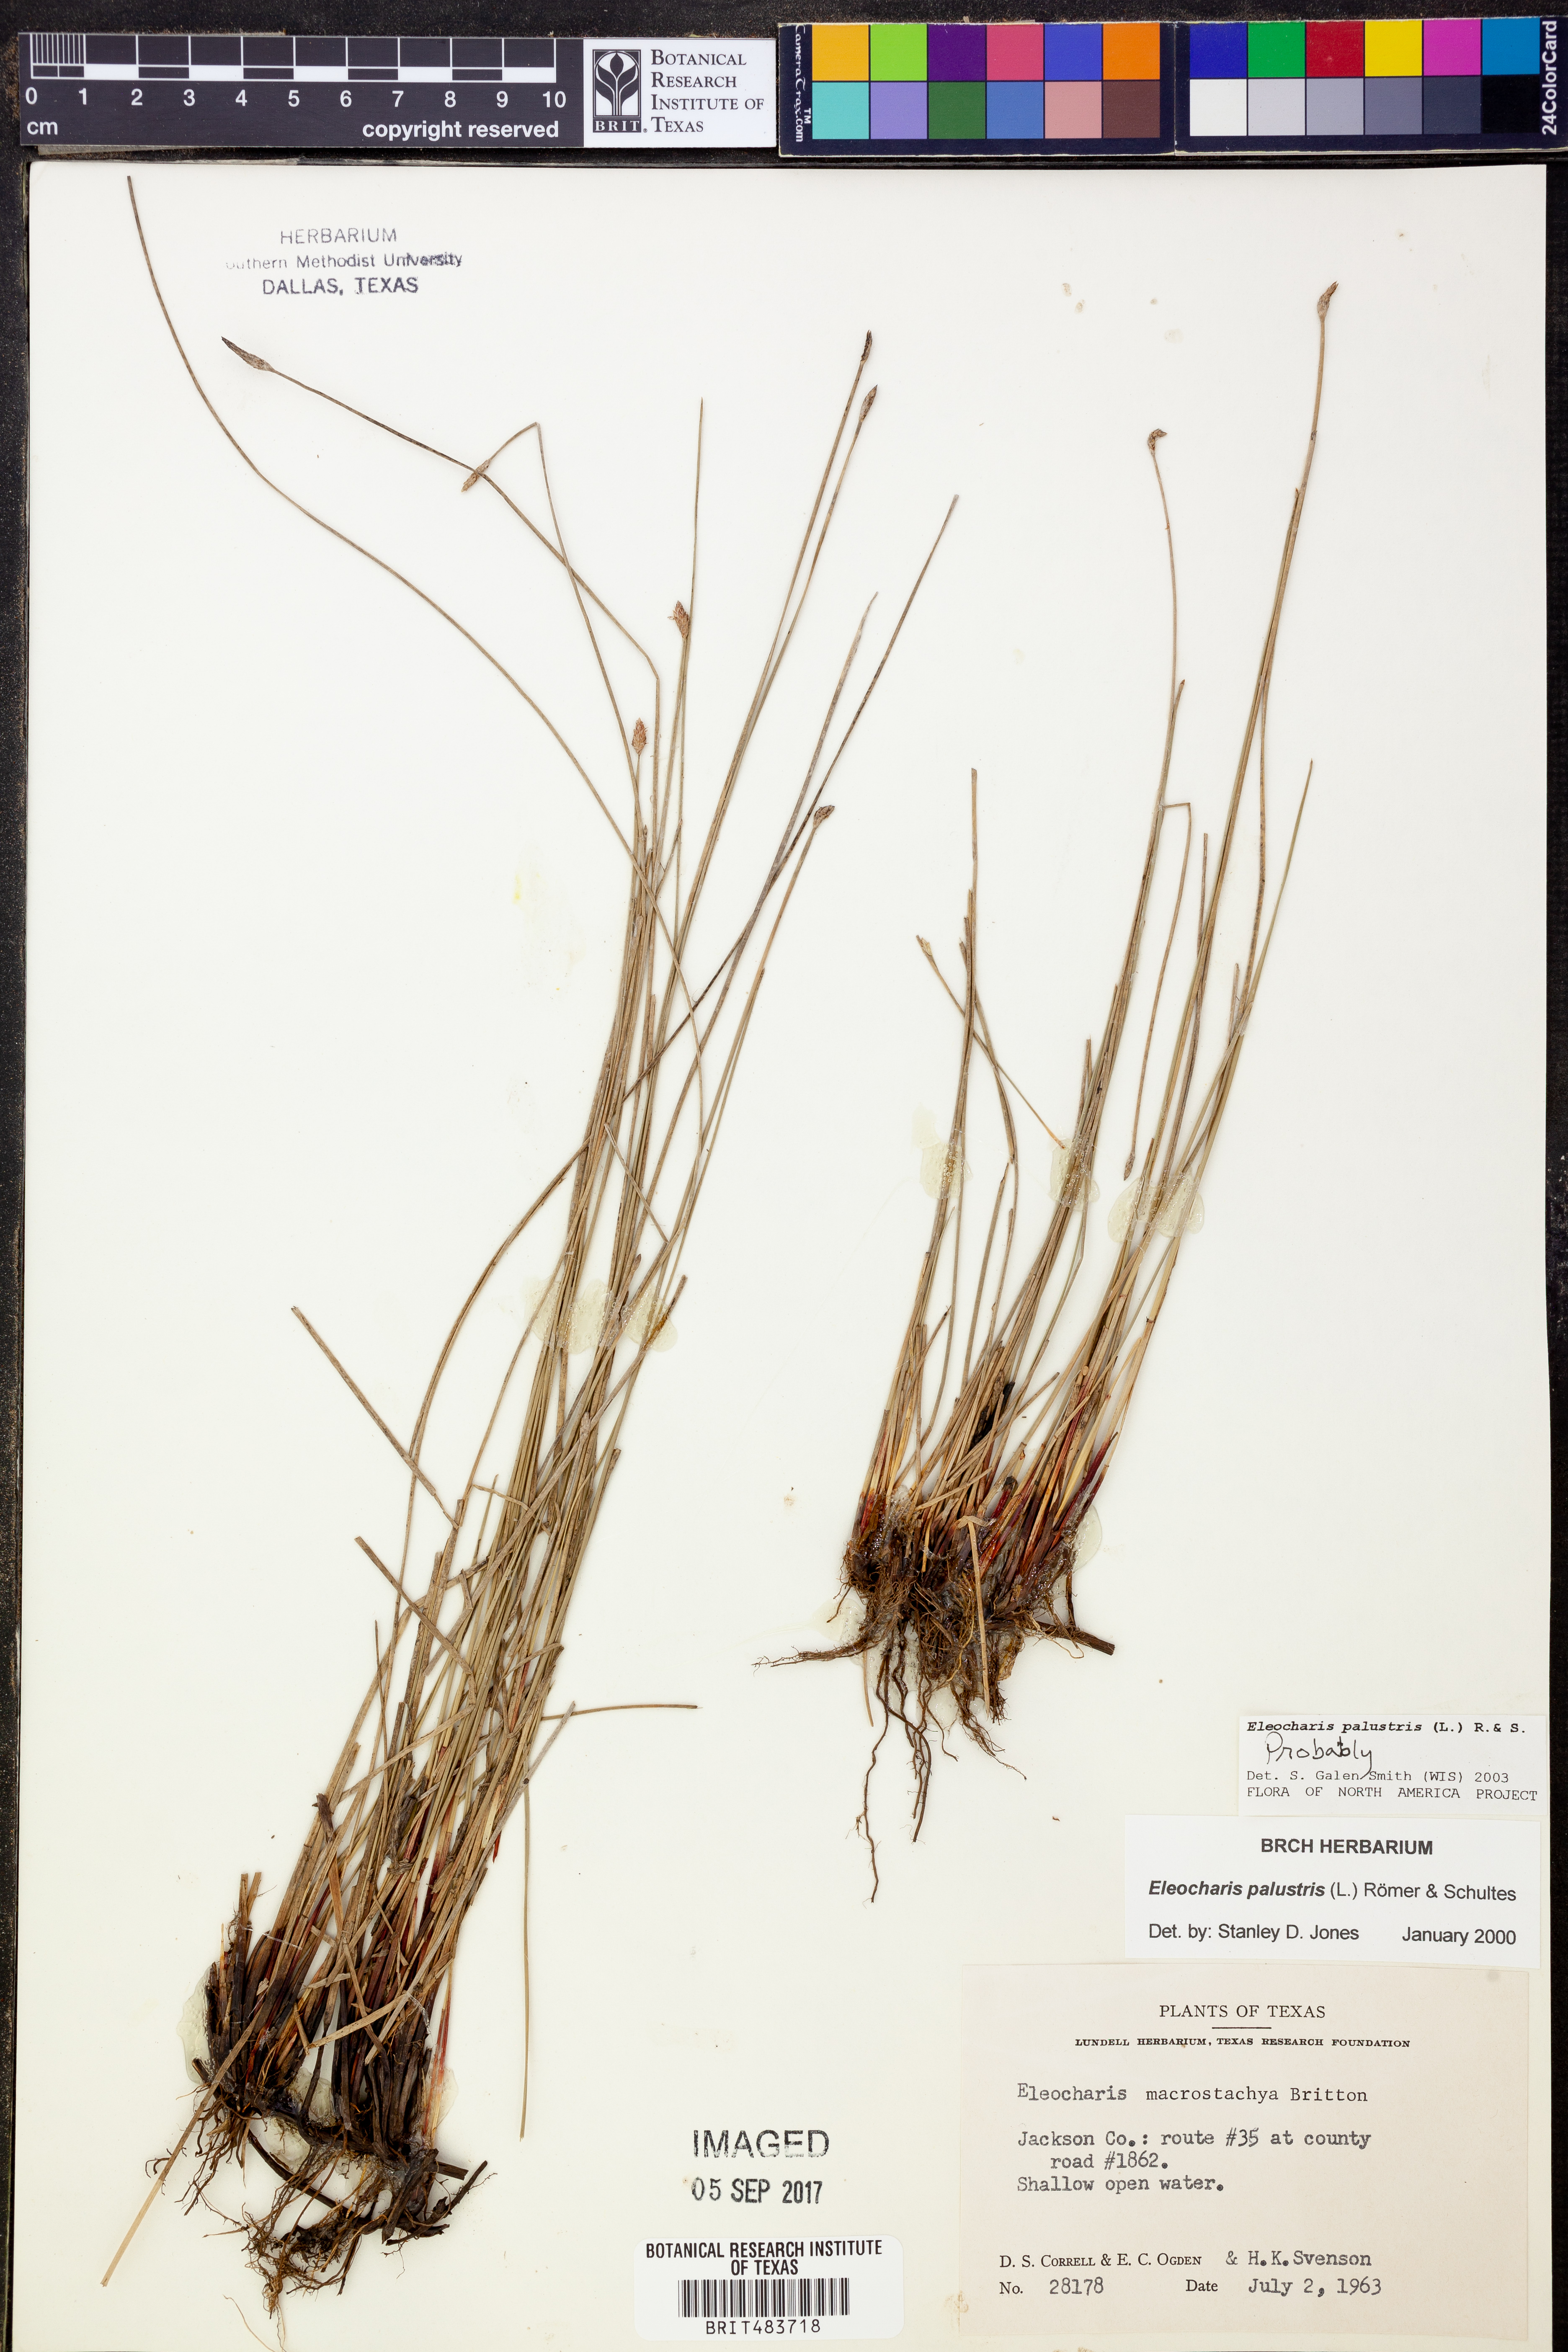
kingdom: Plantae
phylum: Tracheophyta
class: Liliopsida
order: Poales
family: Cyperaceae
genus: Eleocharis
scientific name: Eleocharis palustris
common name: Common spike-rush
